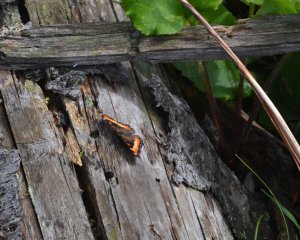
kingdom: Animalia
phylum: Arthropoda
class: Insecta
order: Lepidoptera
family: Nymphalidae
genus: Aglais
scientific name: Aglais milberti
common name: Milbert's Tortoiseshell
